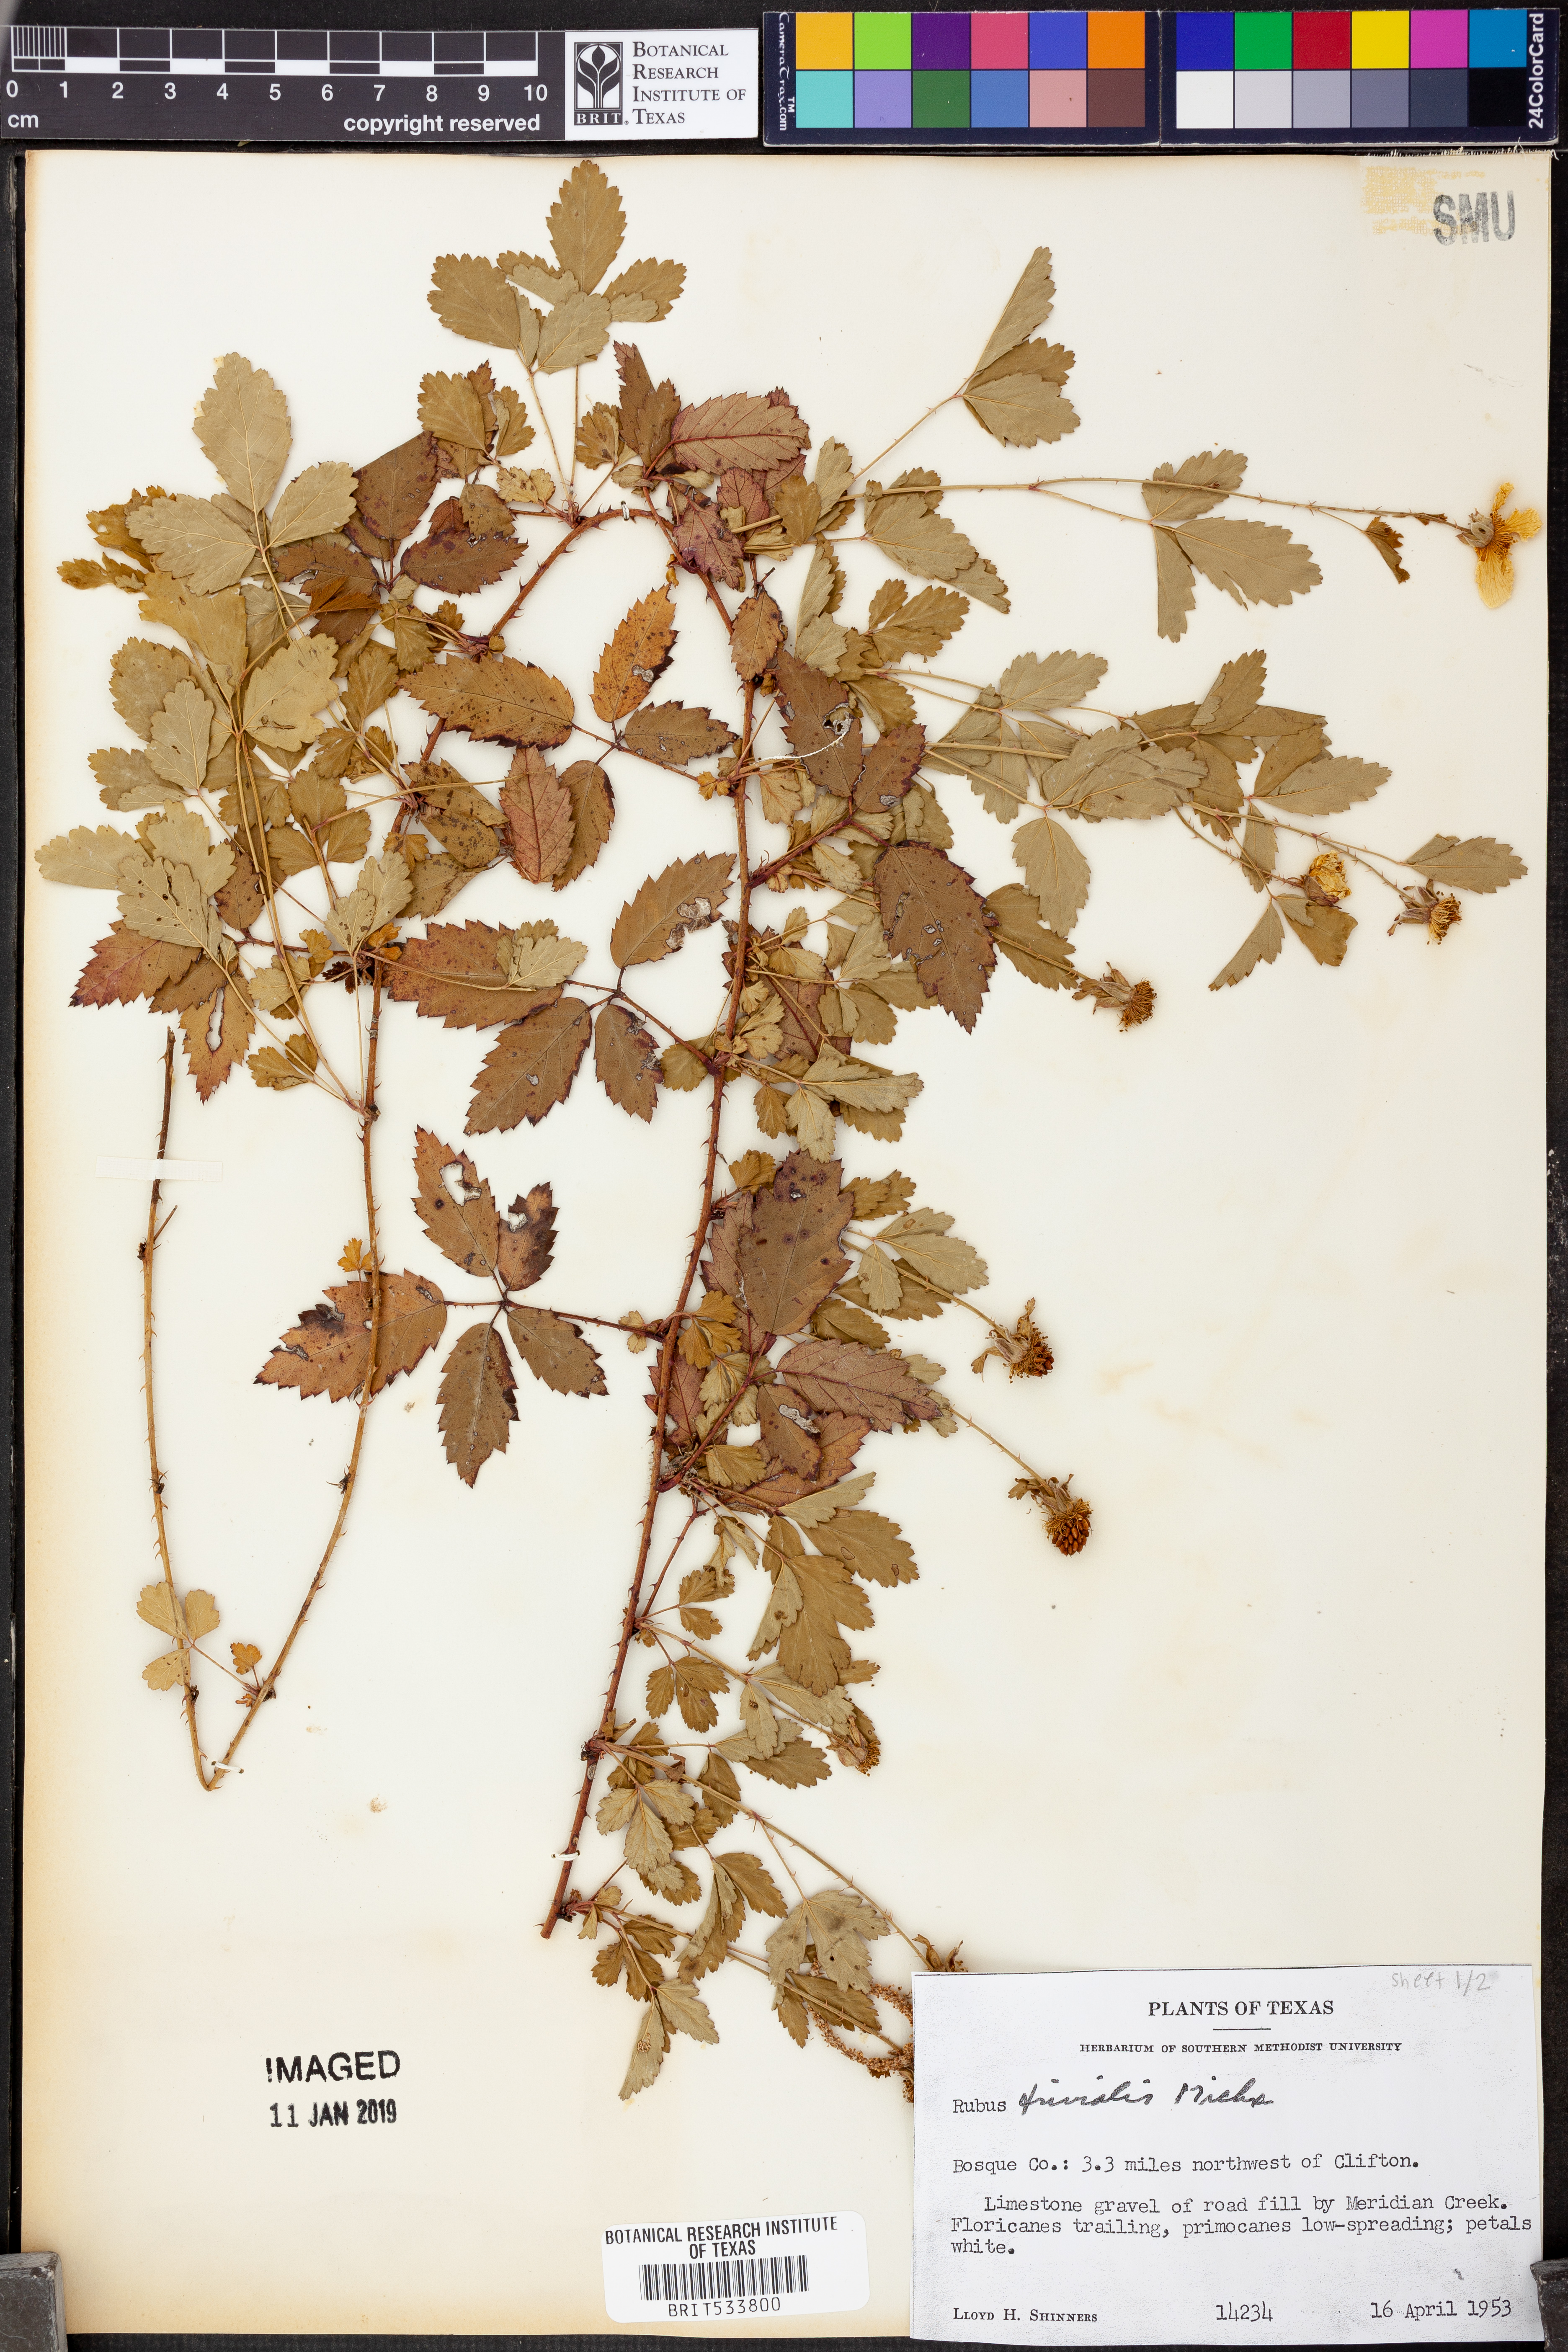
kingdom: Plantae
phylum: Tracheophyta
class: Magnoliopsida
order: Rosales
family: Rosaceae
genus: Rubus
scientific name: Rubus trivialis
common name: Southern dewberry
